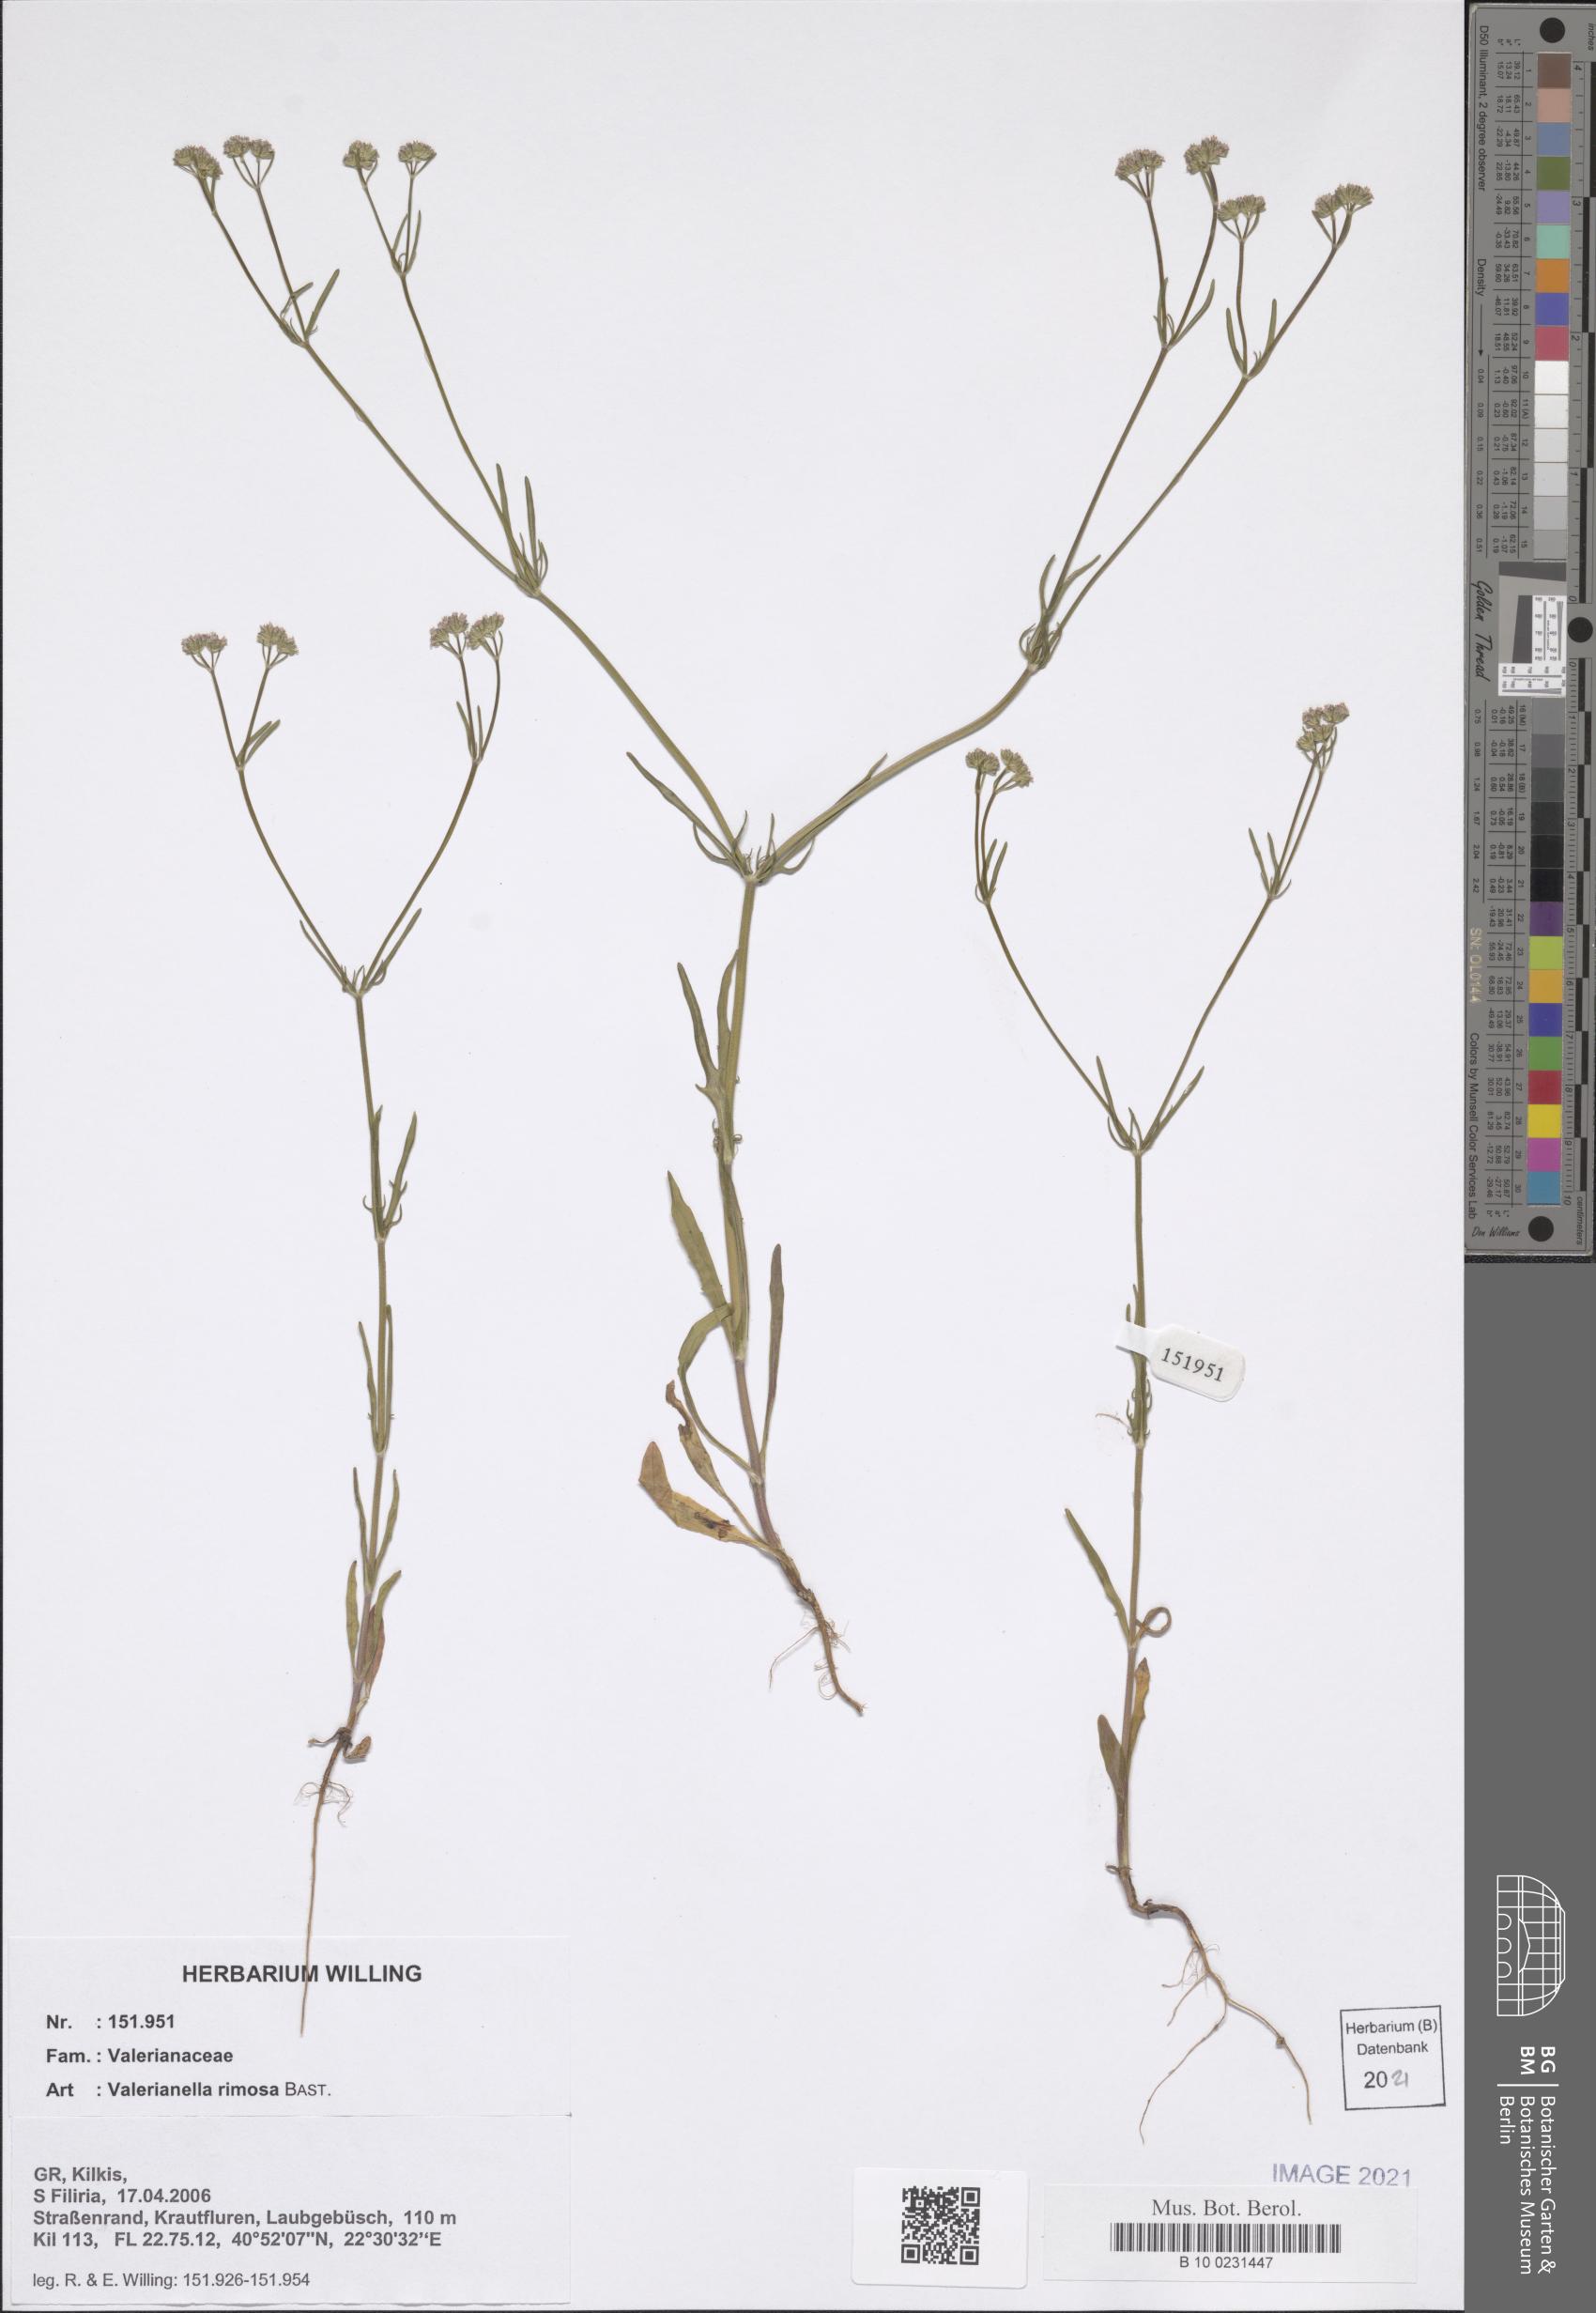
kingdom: Plantae
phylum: Tracheophyta
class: Magnoliopsida
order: Dipsacales
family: Caprifoliaceae
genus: Valerianella
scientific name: Valerianella rimosa
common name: Broad-fruited cornsalad
